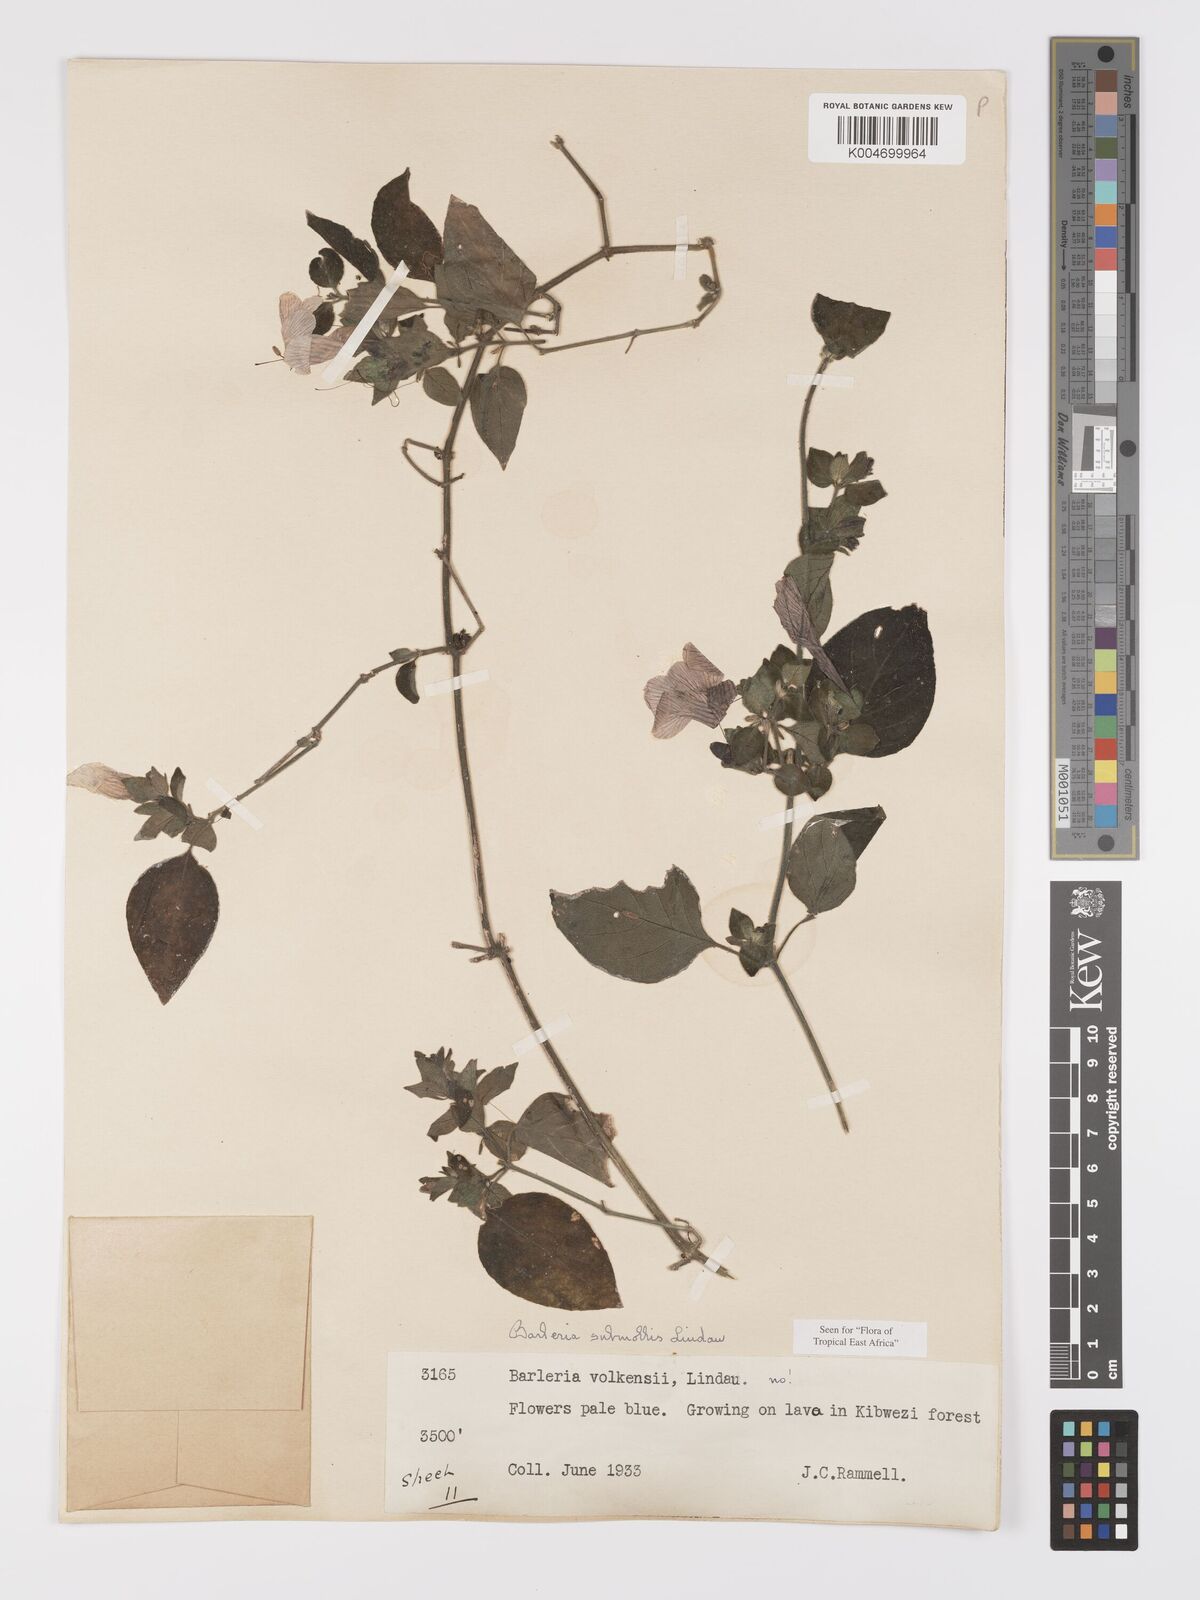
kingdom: Plantae
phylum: Tracheophyta
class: Magnoliopsida
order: Lamiales
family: Acanthaceae
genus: Barleria
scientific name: Barleria submollis
